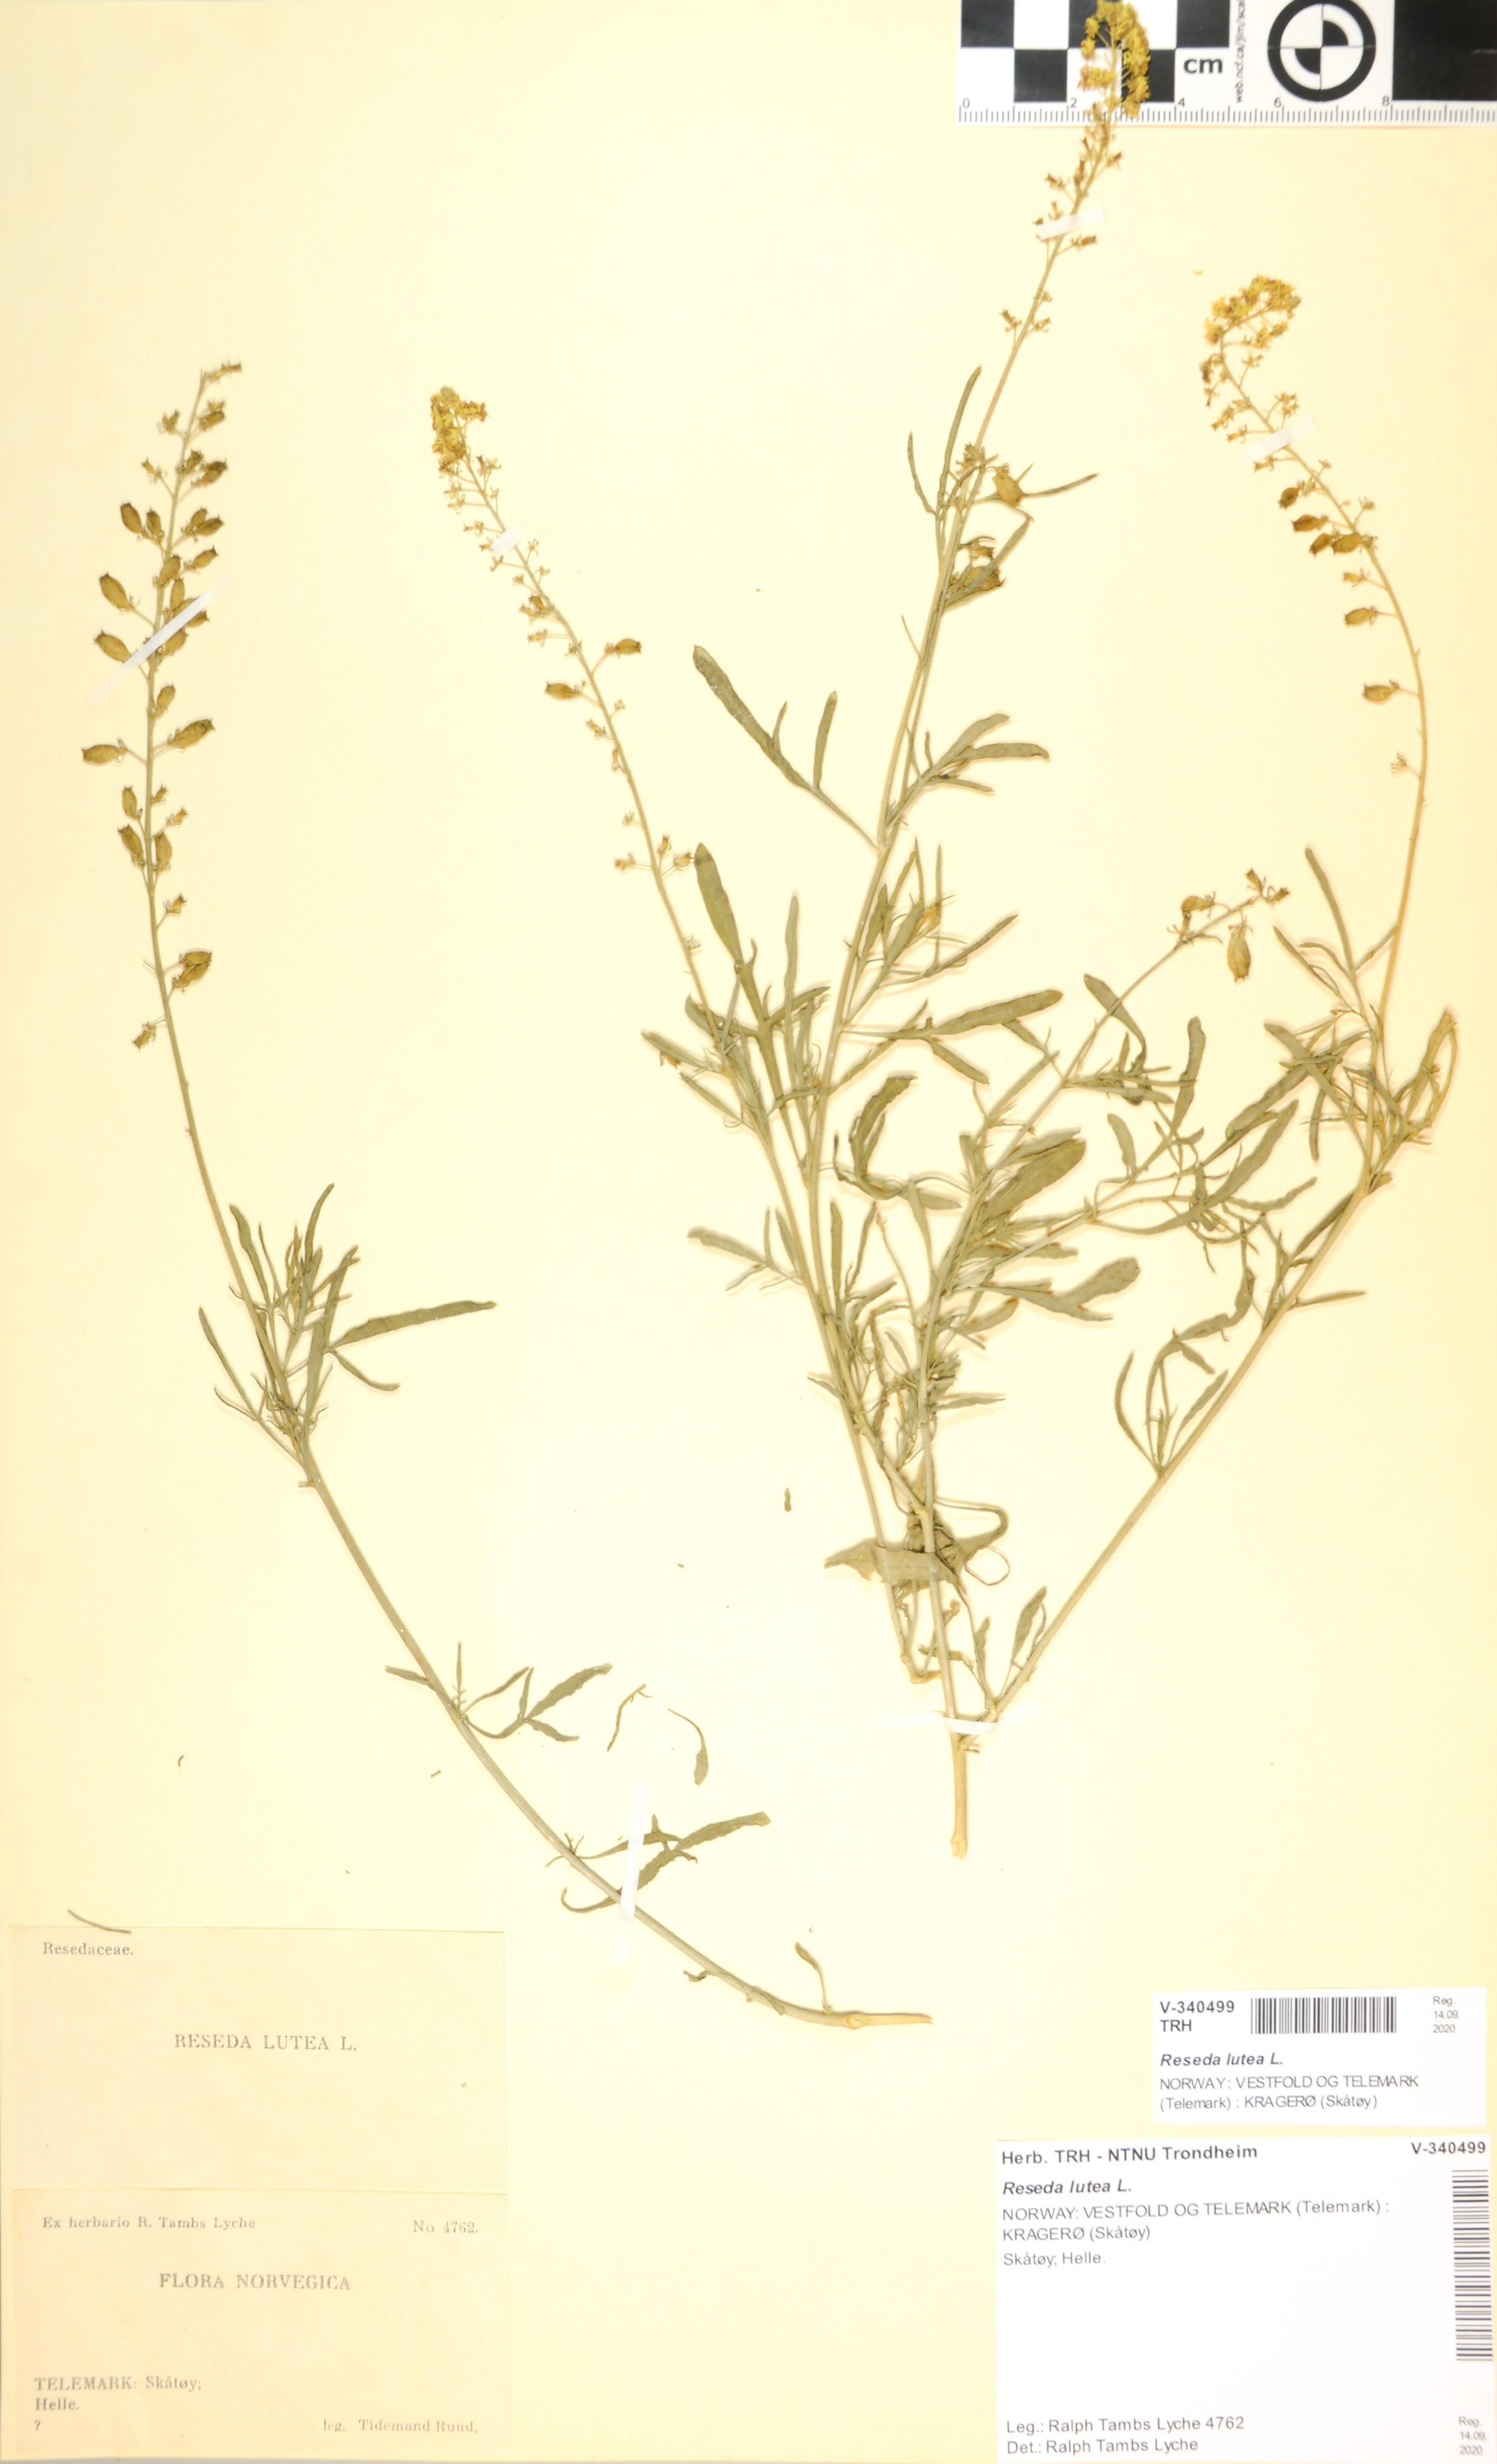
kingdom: Plantae
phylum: Tracheophyta
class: Magnoliopsida
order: Brassicales
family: Resedaceae
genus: Reseda
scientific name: Reseda lutea
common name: Wild mignonette
